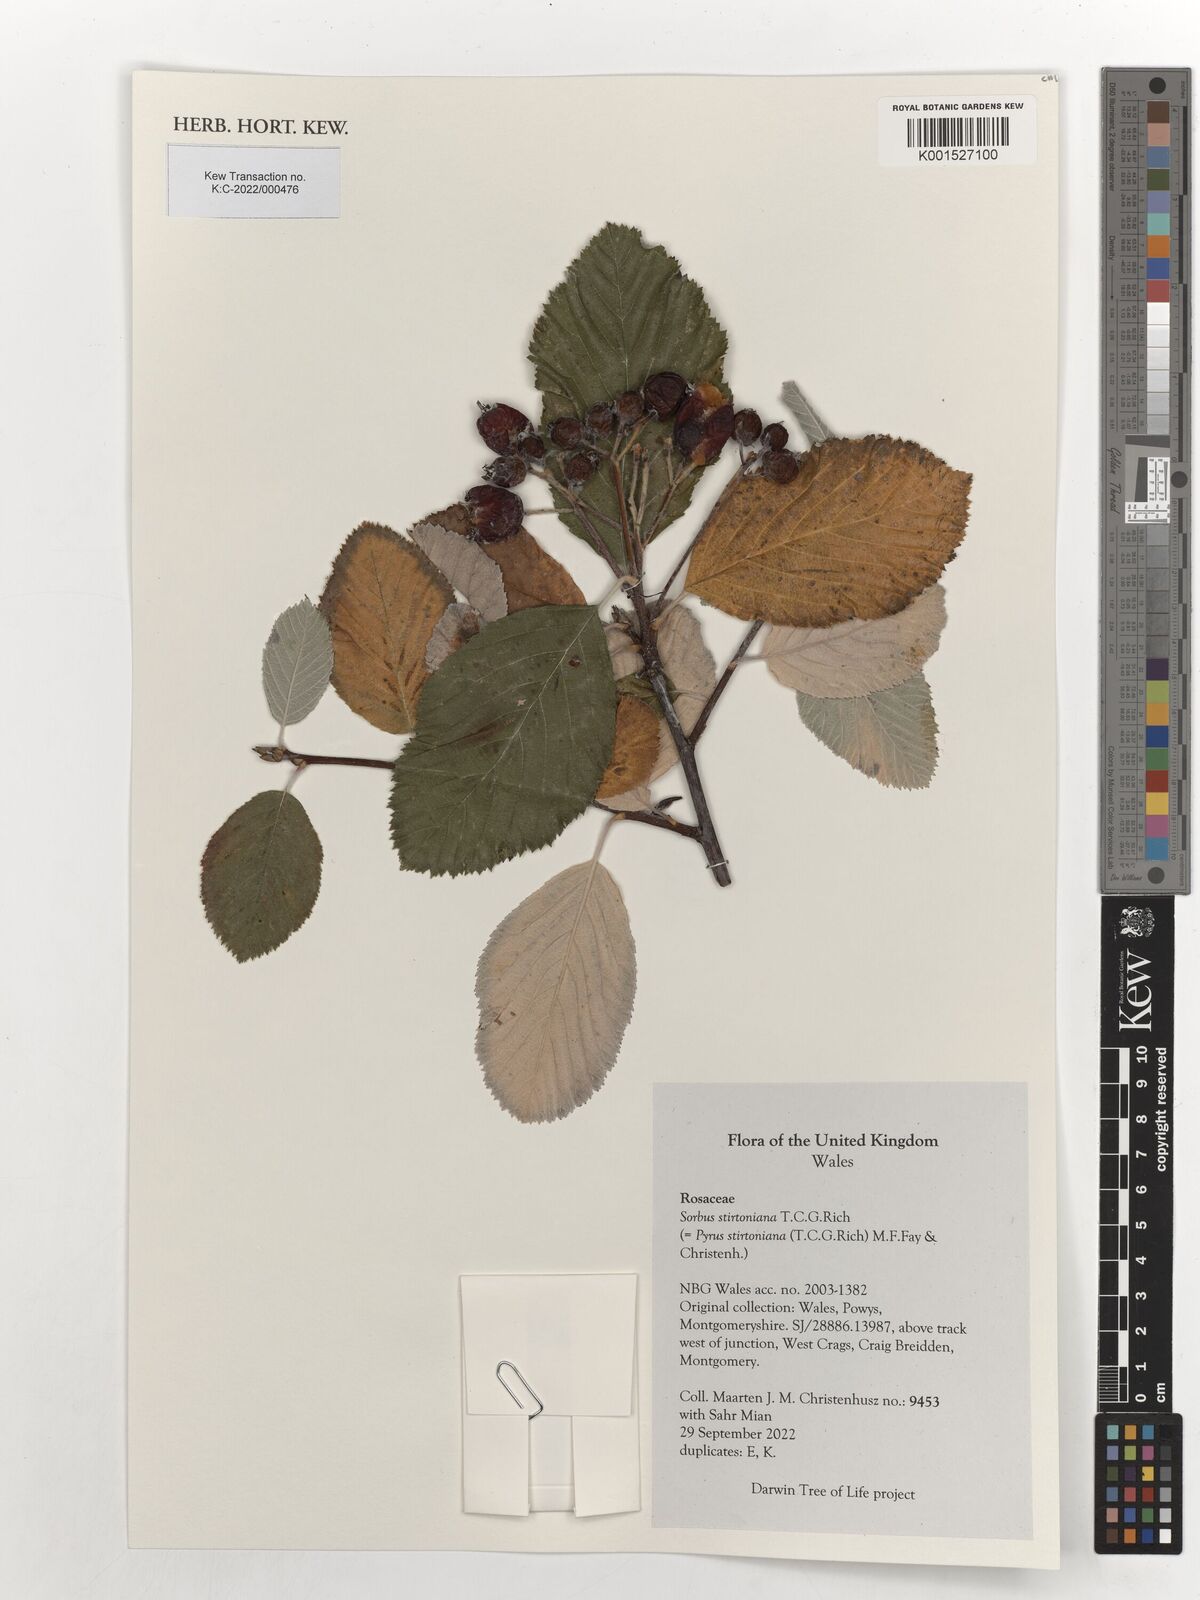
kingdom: Plantae
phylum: Tracheophyta
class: Magnoliopsida
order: Rosales
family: Rosaceae
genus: Aria
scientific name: Aria stirtoniana
